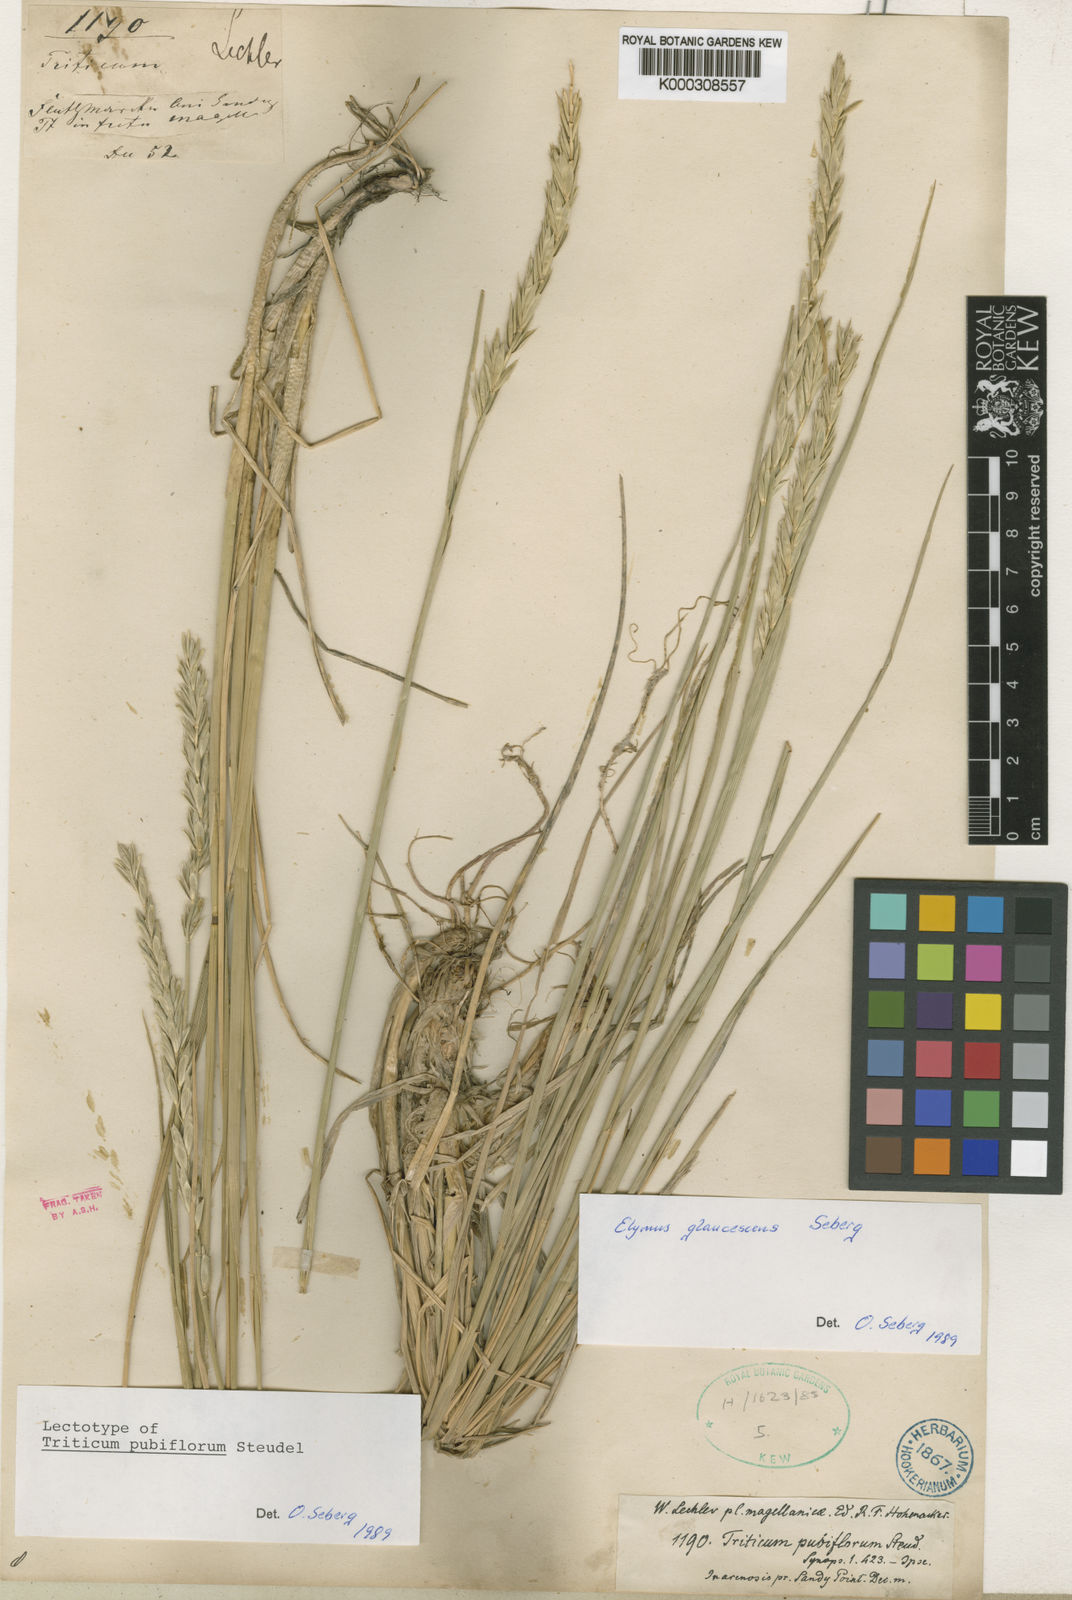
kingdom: Plantae
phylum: Tracheophyta
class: Liliopsida
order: Poales
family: Poaceae
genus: Elymus
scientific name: Elymus
